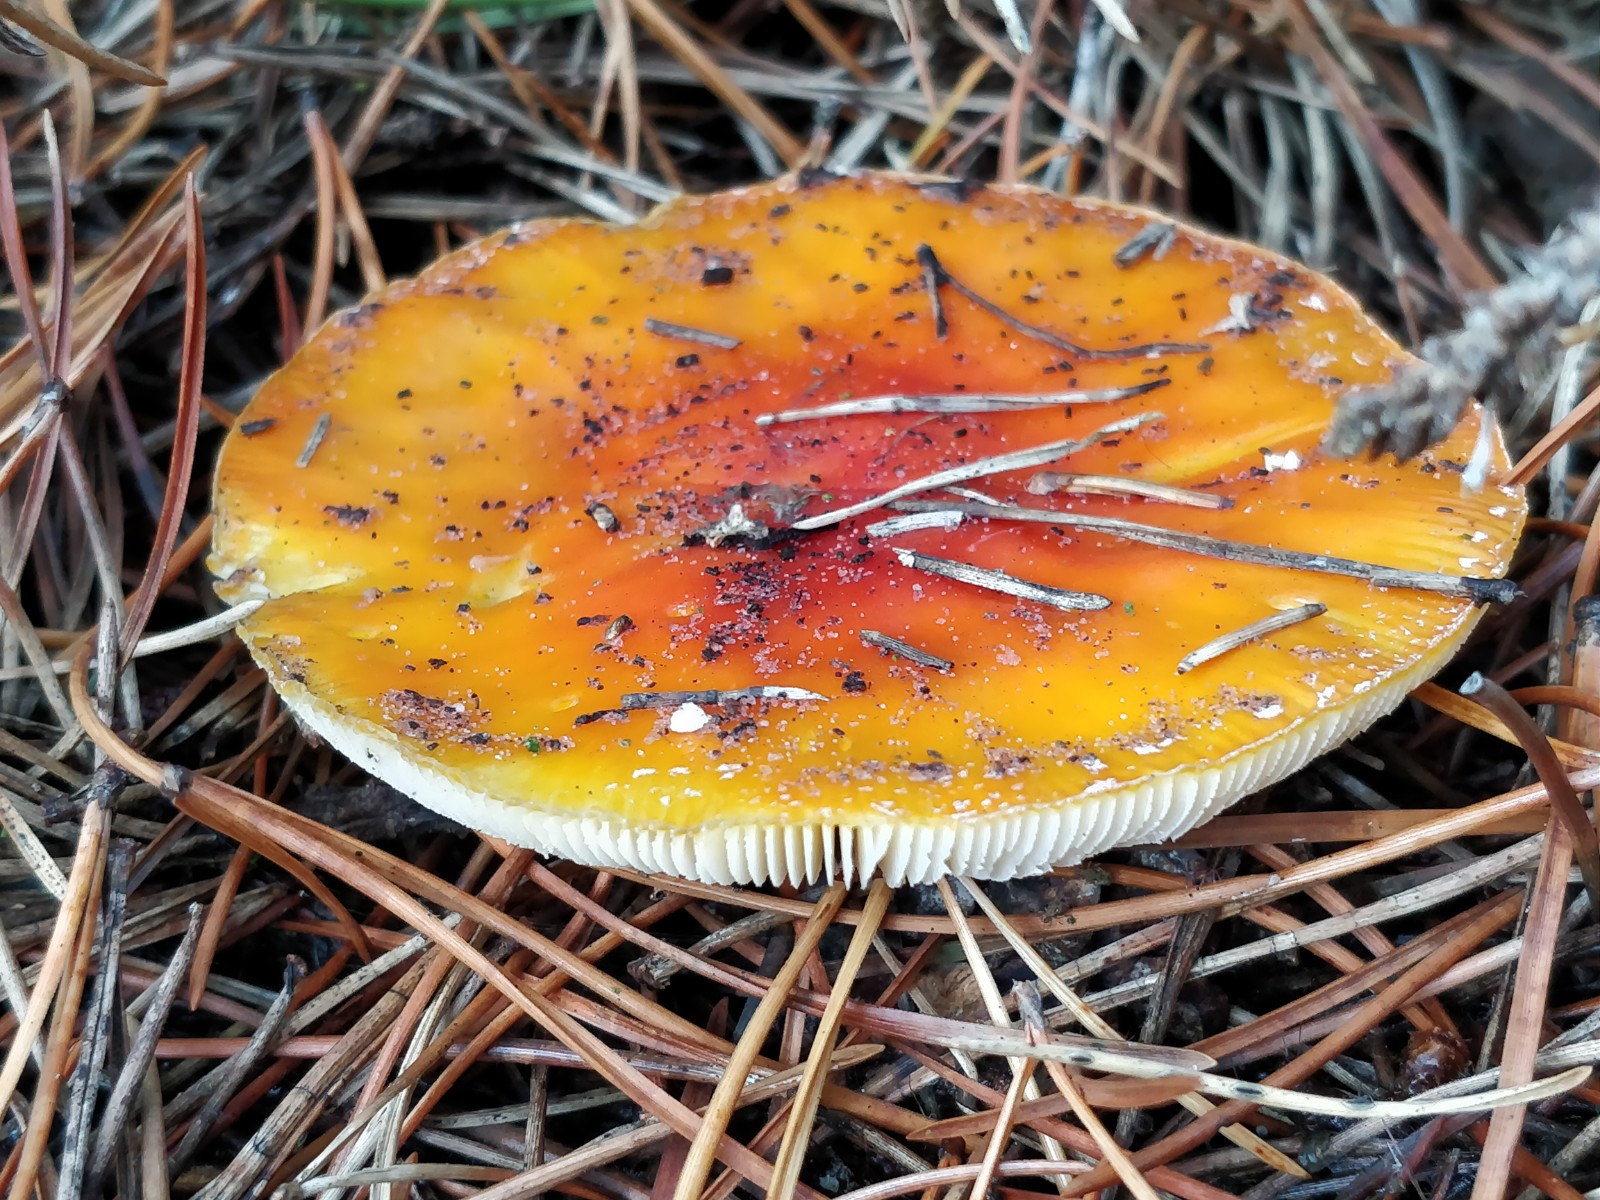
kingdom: Fungi
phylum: Basidiomycota
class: Agaricomycetes
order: Agaricales
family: Amanitaceae
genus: Amanita
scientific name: Amanita muscaria
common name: rød fluesvamp
